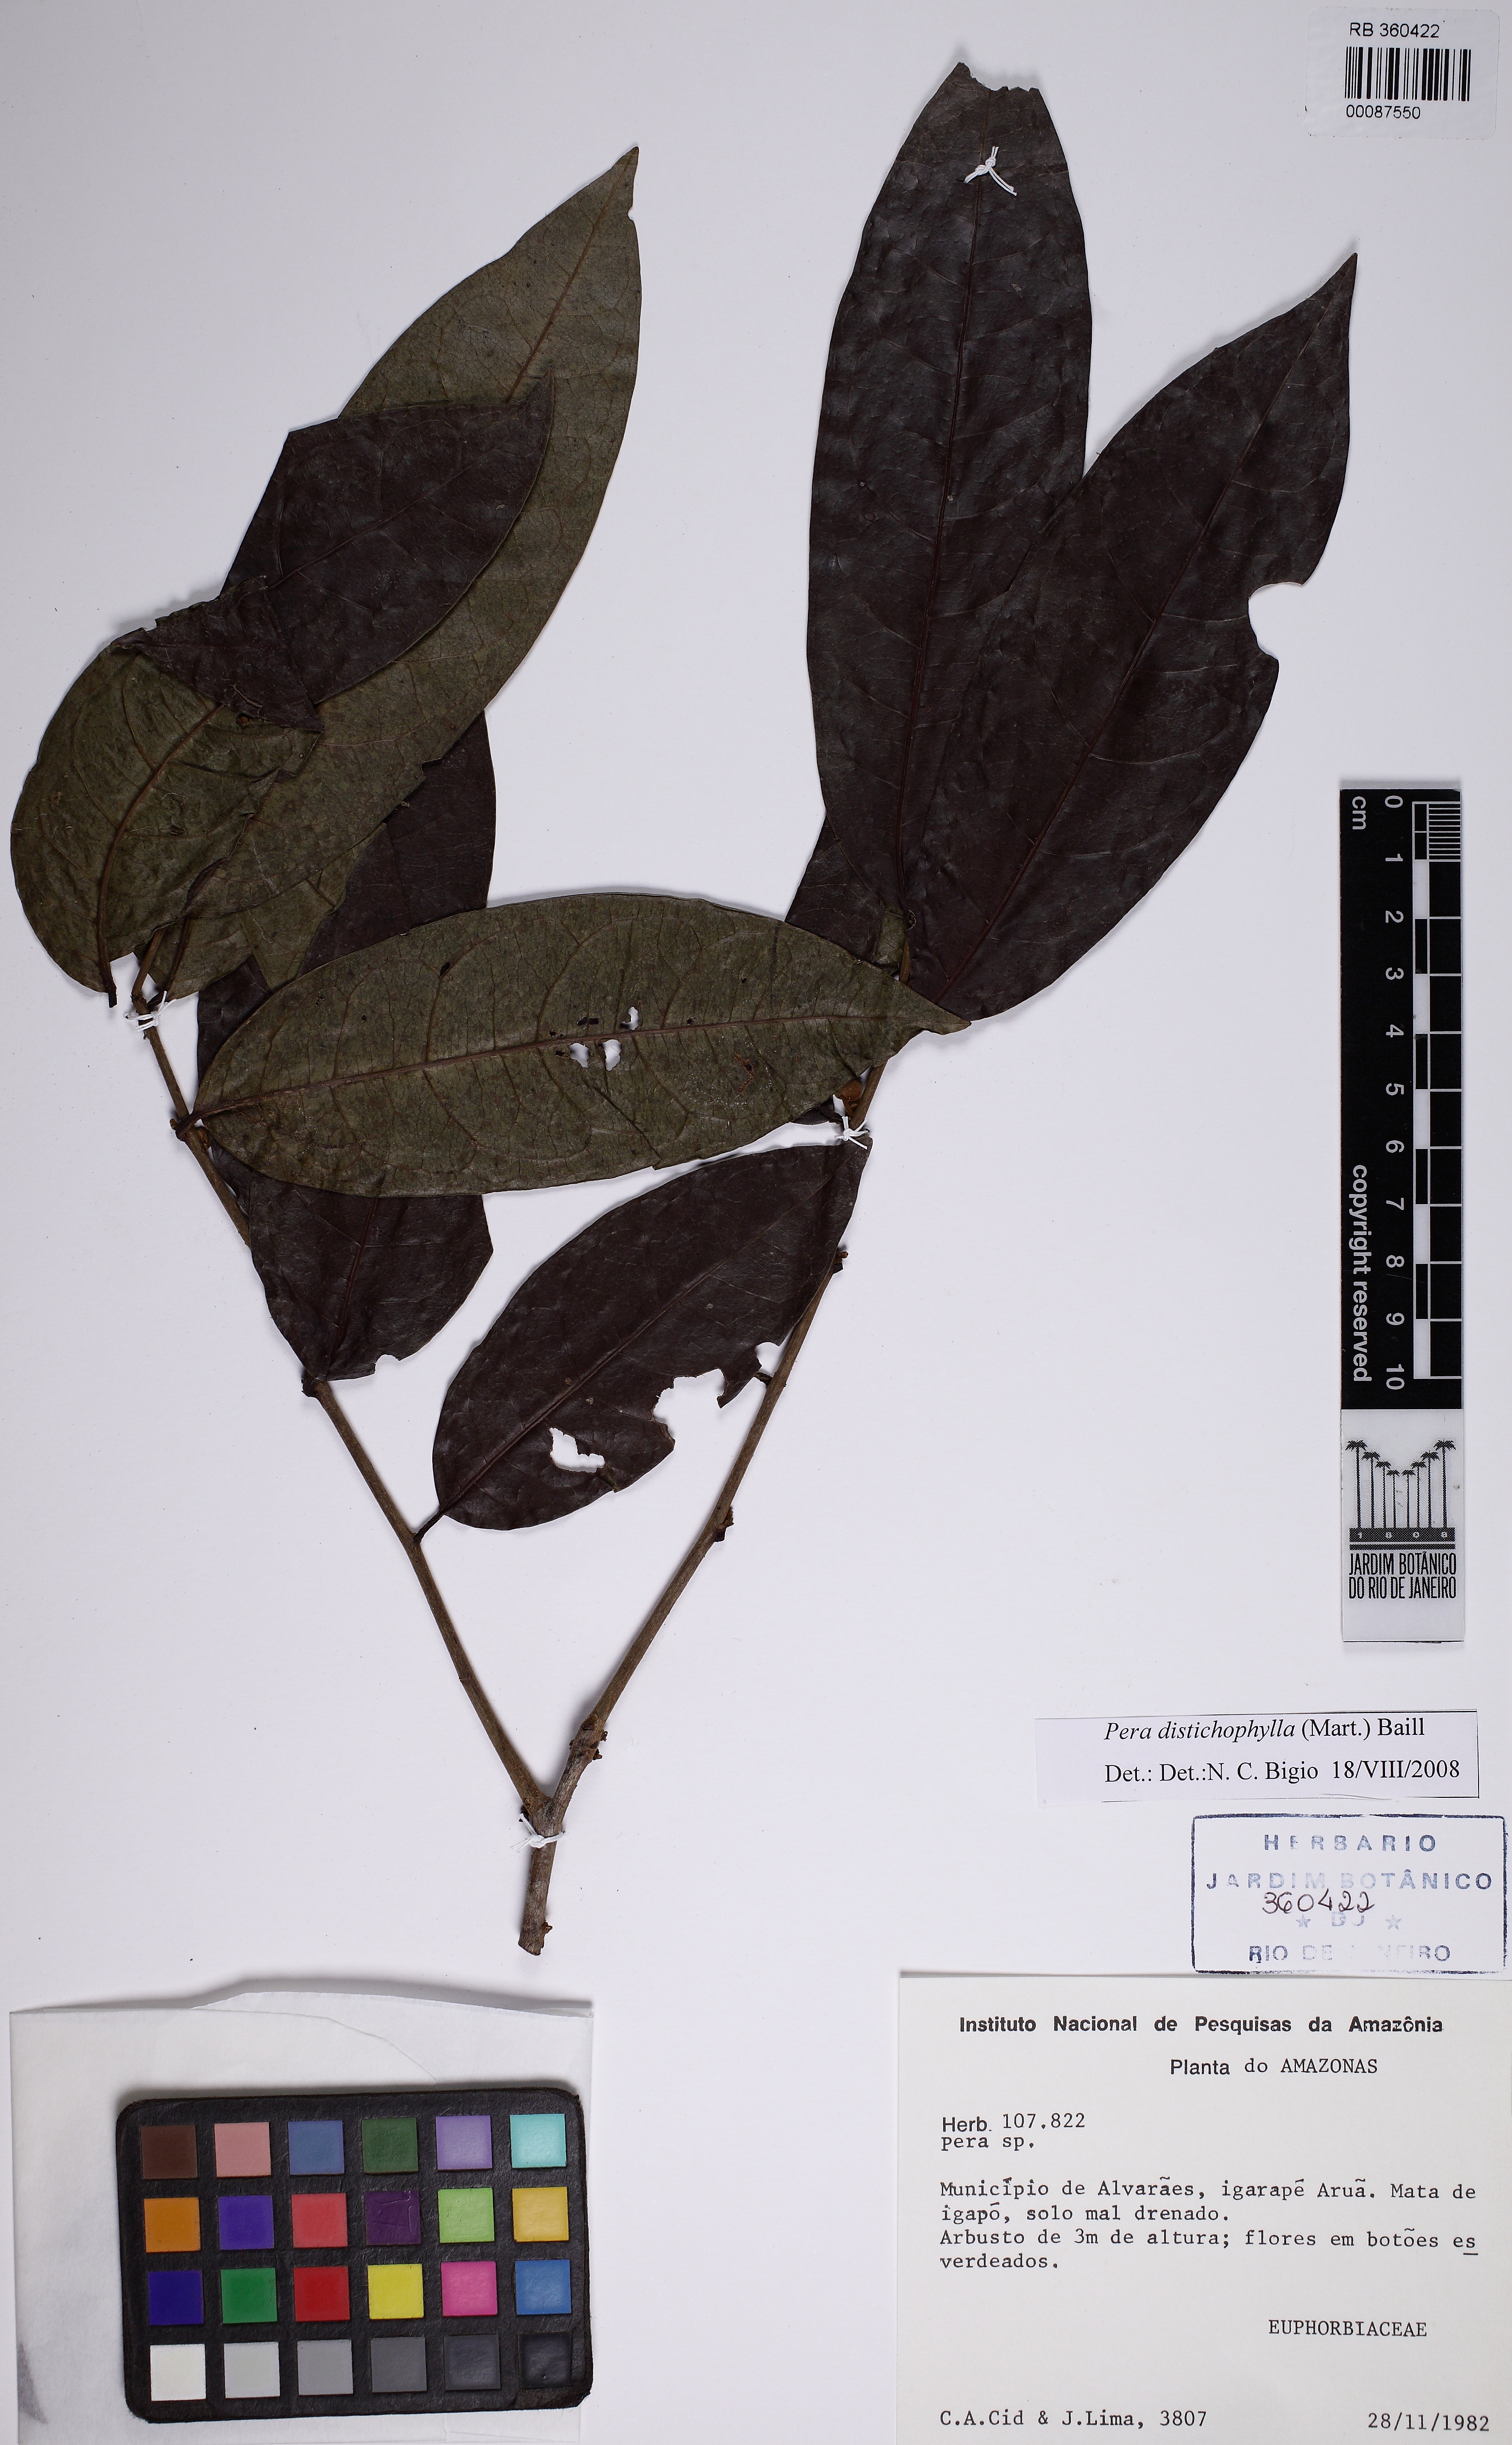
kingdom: Plantae
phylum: Tracheophyta
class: Magnoliopsida
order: Malpighiales
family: Peraceae
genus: Pera
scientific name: Pera distichophylla
